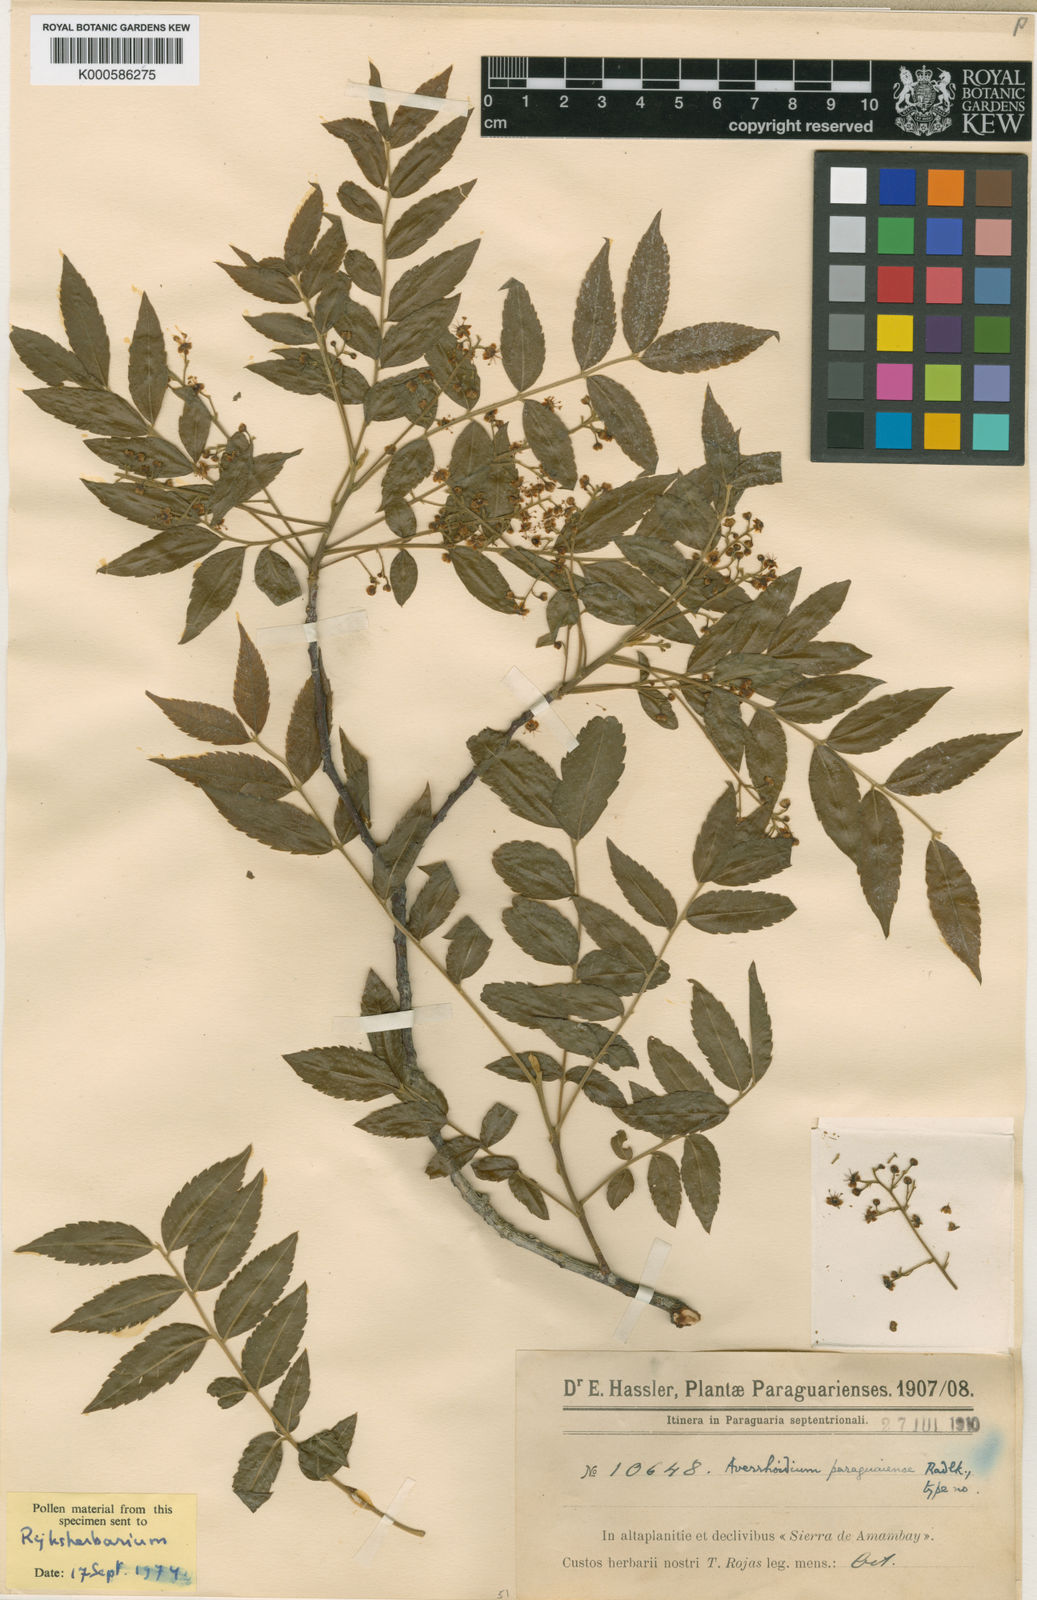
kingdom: Plantae
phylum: Tracheophyta
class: Magnoliopsida
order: Sapindales
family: Sapindaceae
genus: Averrhoidium
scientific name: Averrhoidium paraguaiense
